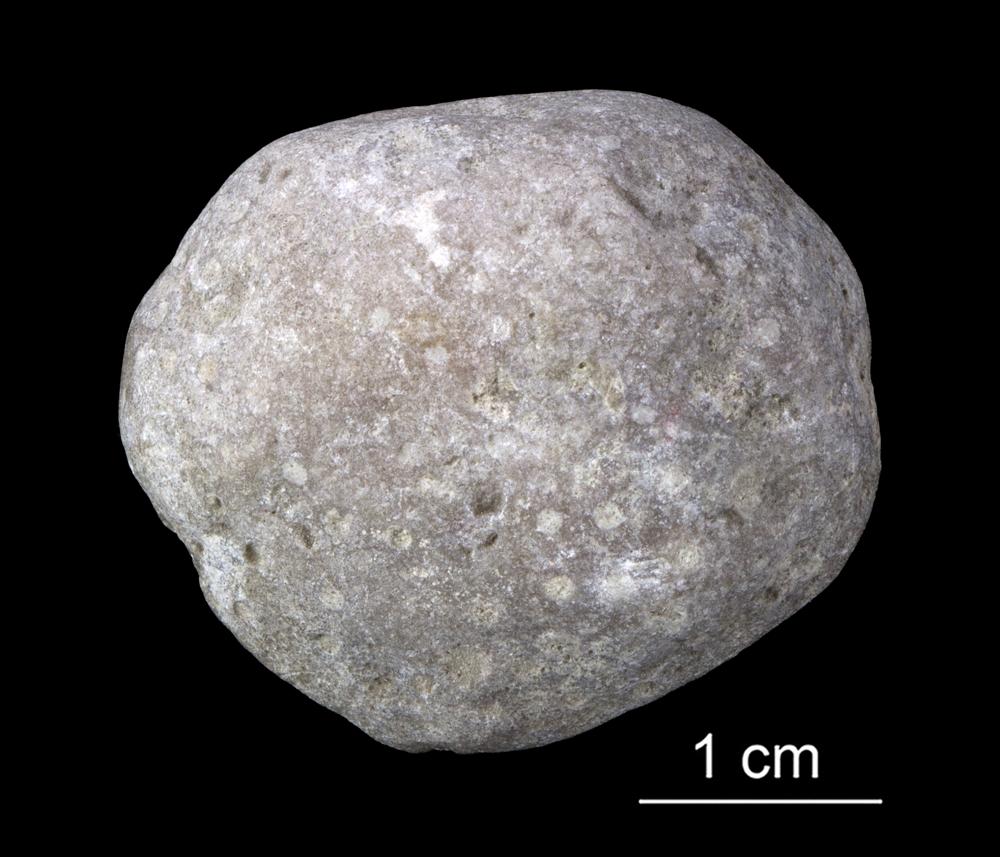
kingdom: Animalia
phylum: Porifera
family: Stromatoporidae
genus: Stromatopora
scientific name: Stromatopora
